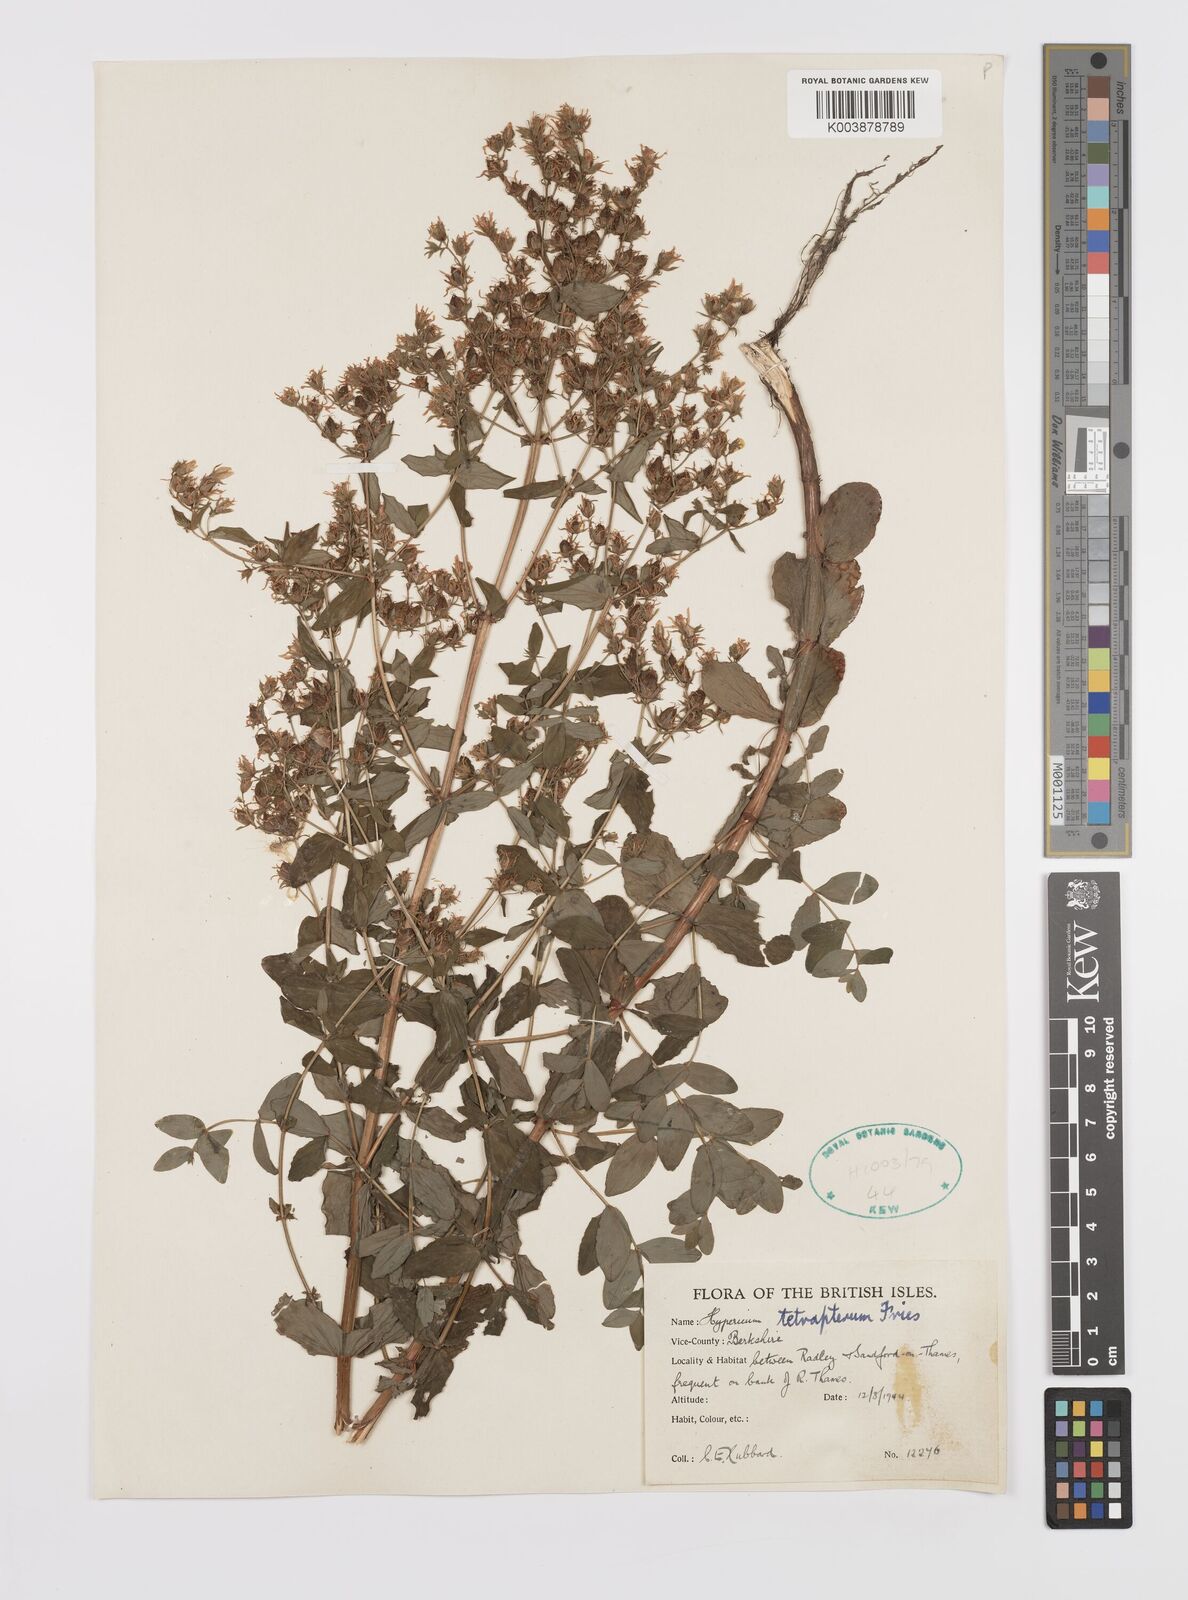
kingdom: Plantae
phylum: Tracheophyta
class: Magnoliopsida
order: Malpighiales
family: Hypericaceae
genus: Hypericum
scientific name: Hypericum tetrapterum
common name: Square-stalked st. john's-wort
